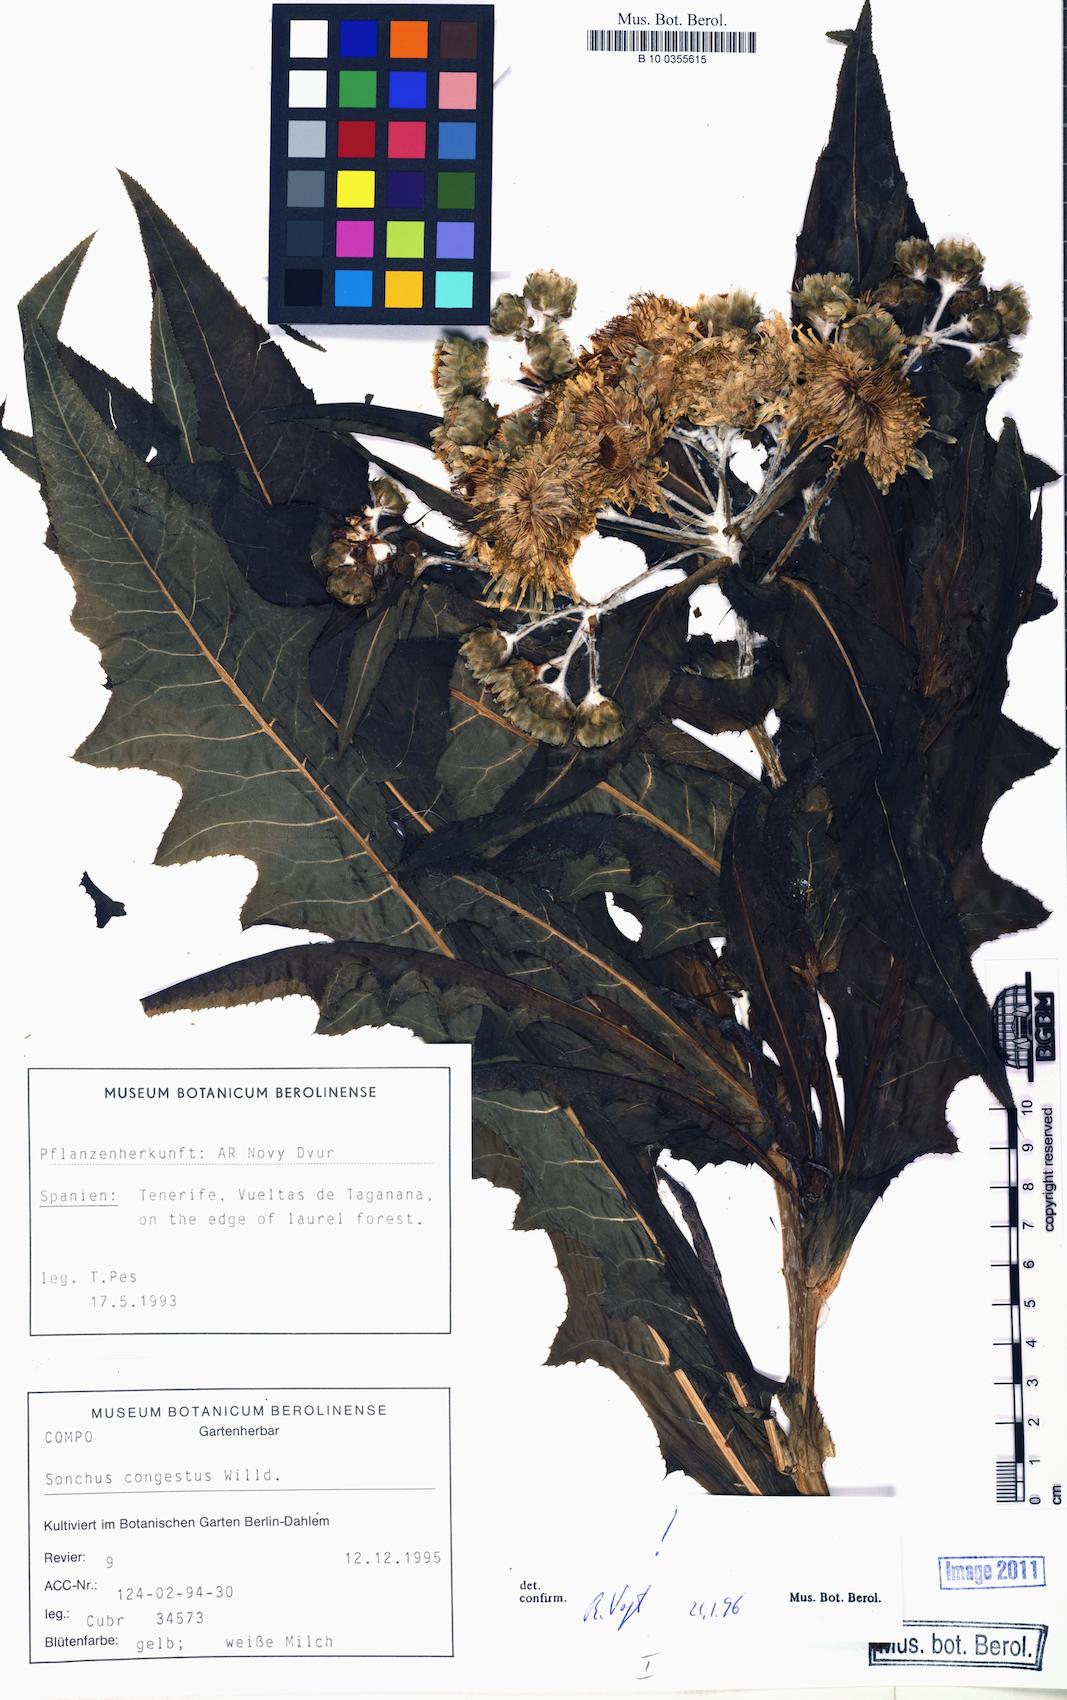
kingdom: Plantae
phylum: Tracheophyta
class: Magnoliopsida
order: Asterales
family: Asteraceae
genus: Sonchus
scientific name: Sonchus congestus
